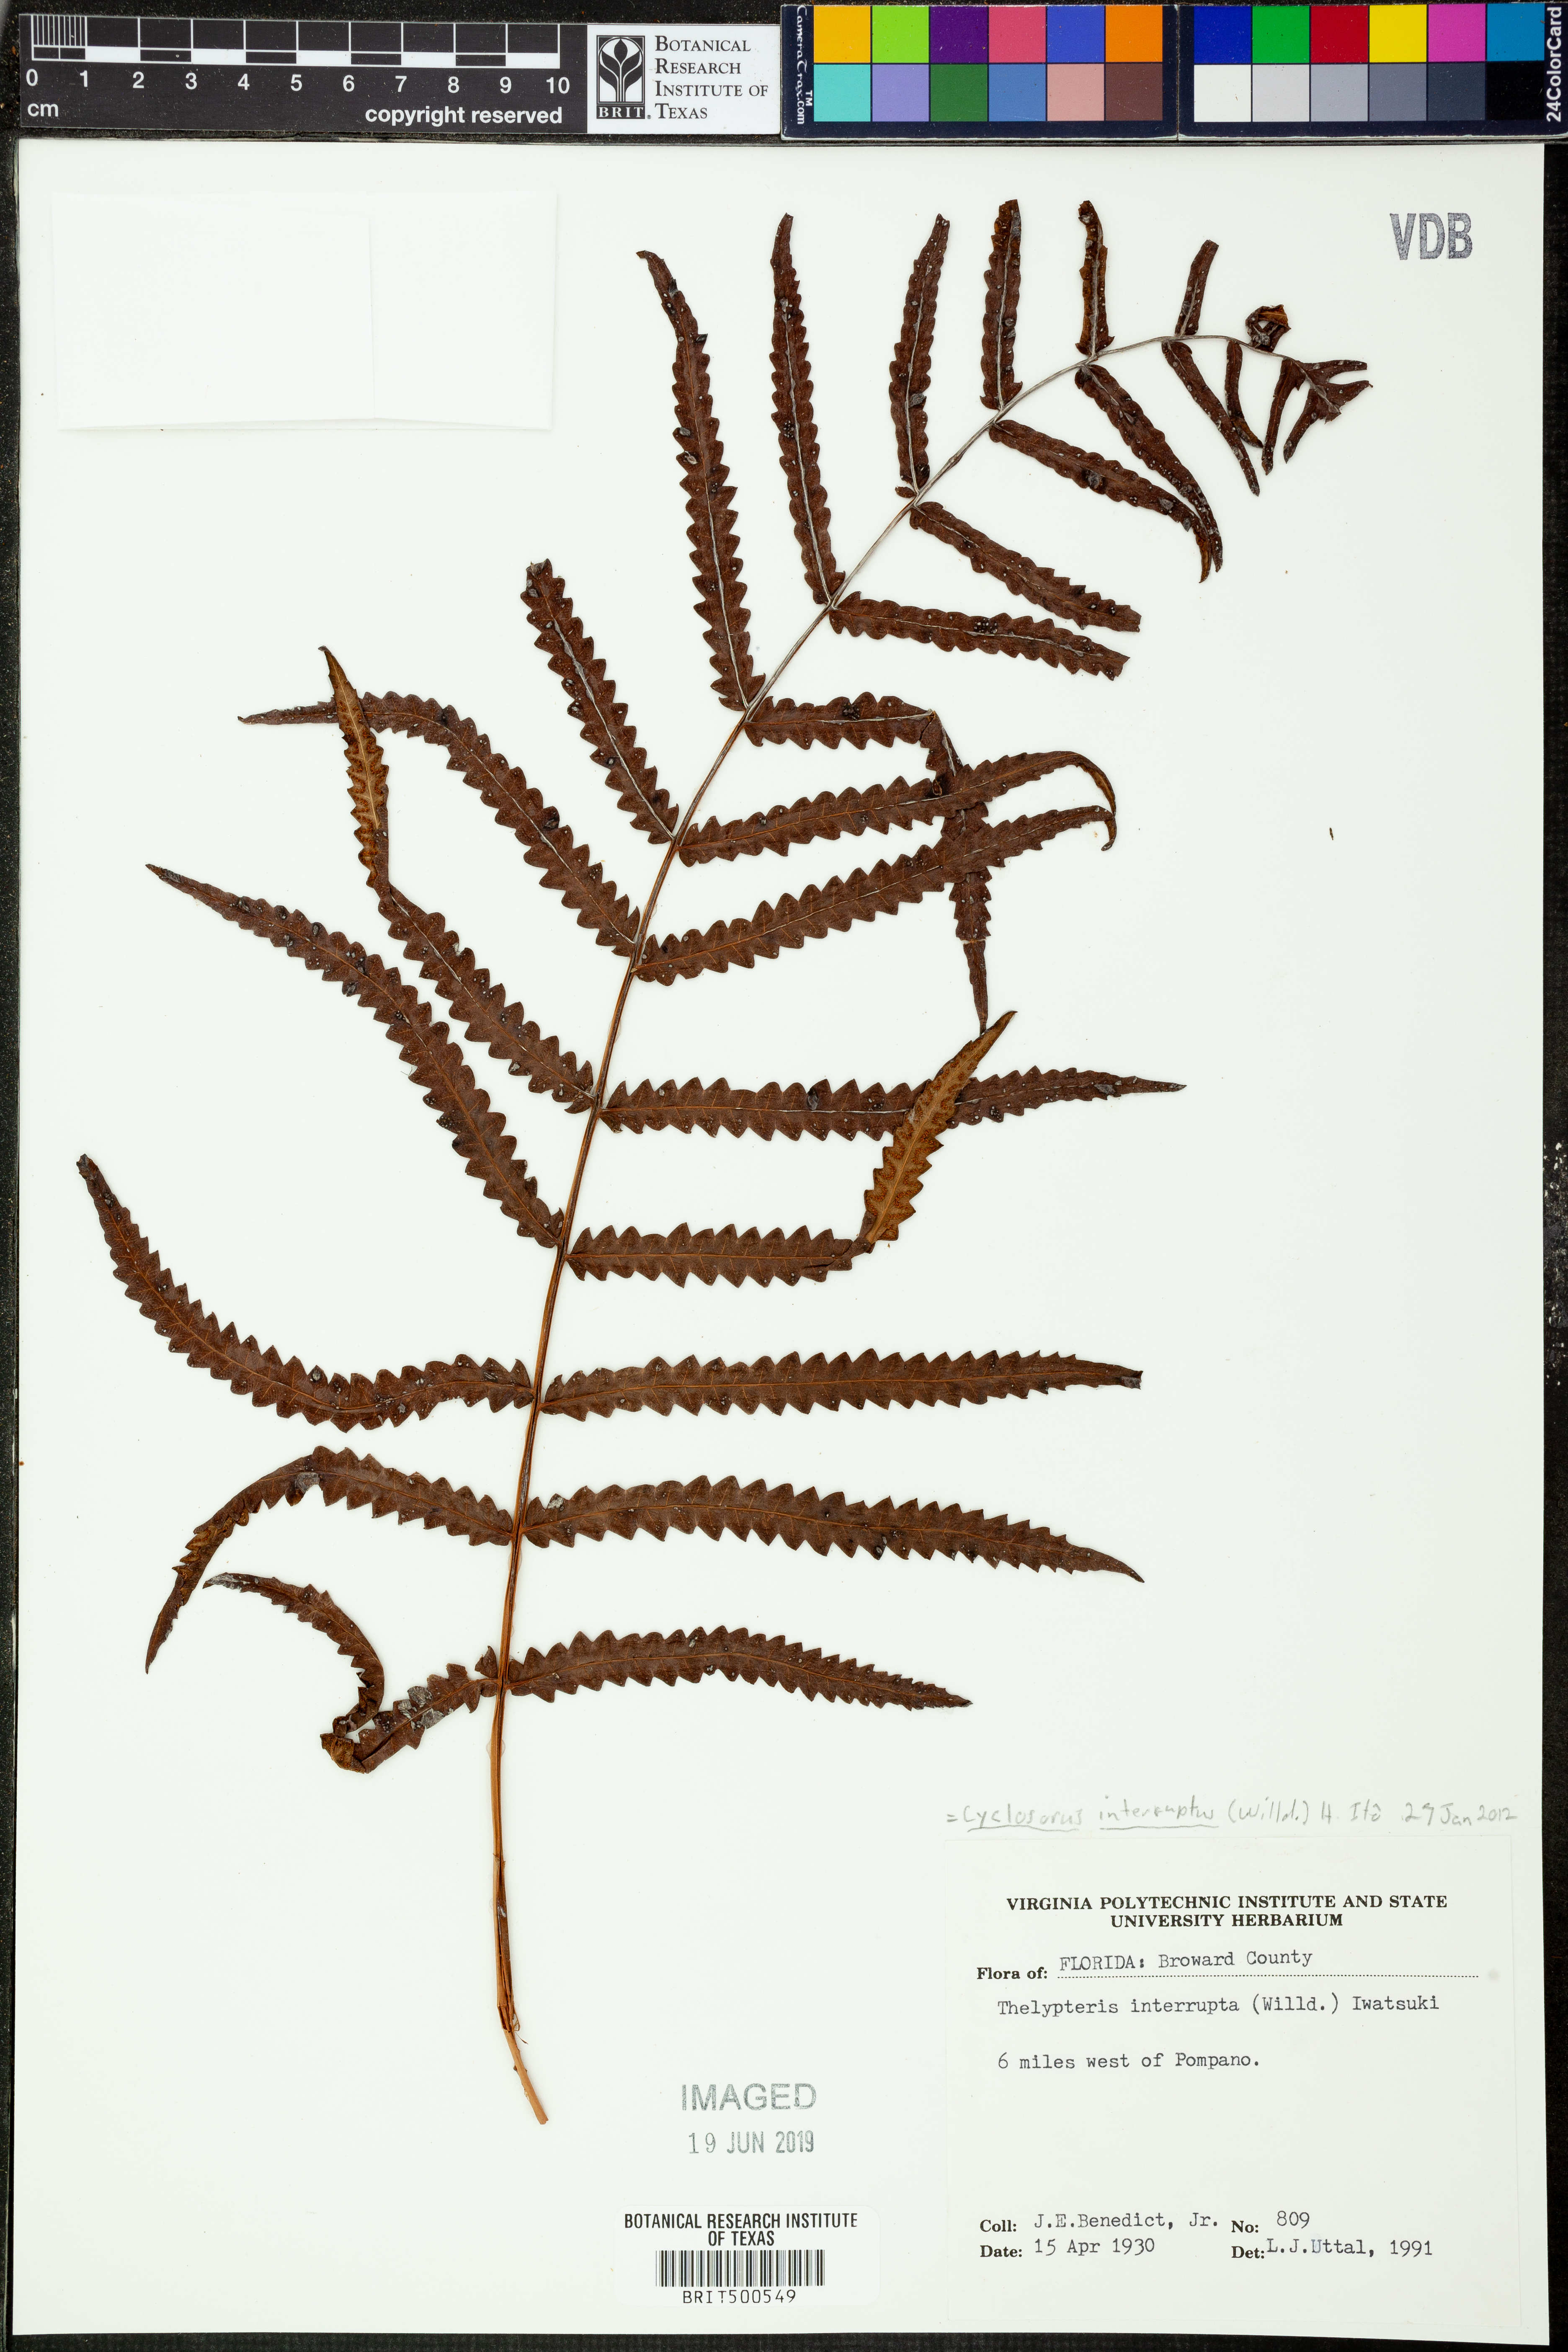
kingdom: Plantae
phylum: Tracheophyta
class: Polypodiopsida
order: Polypodiales
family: Thelypteridaceae
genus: Cyclosorus
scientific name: Cyclosorus interruptus
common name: Neke fern
